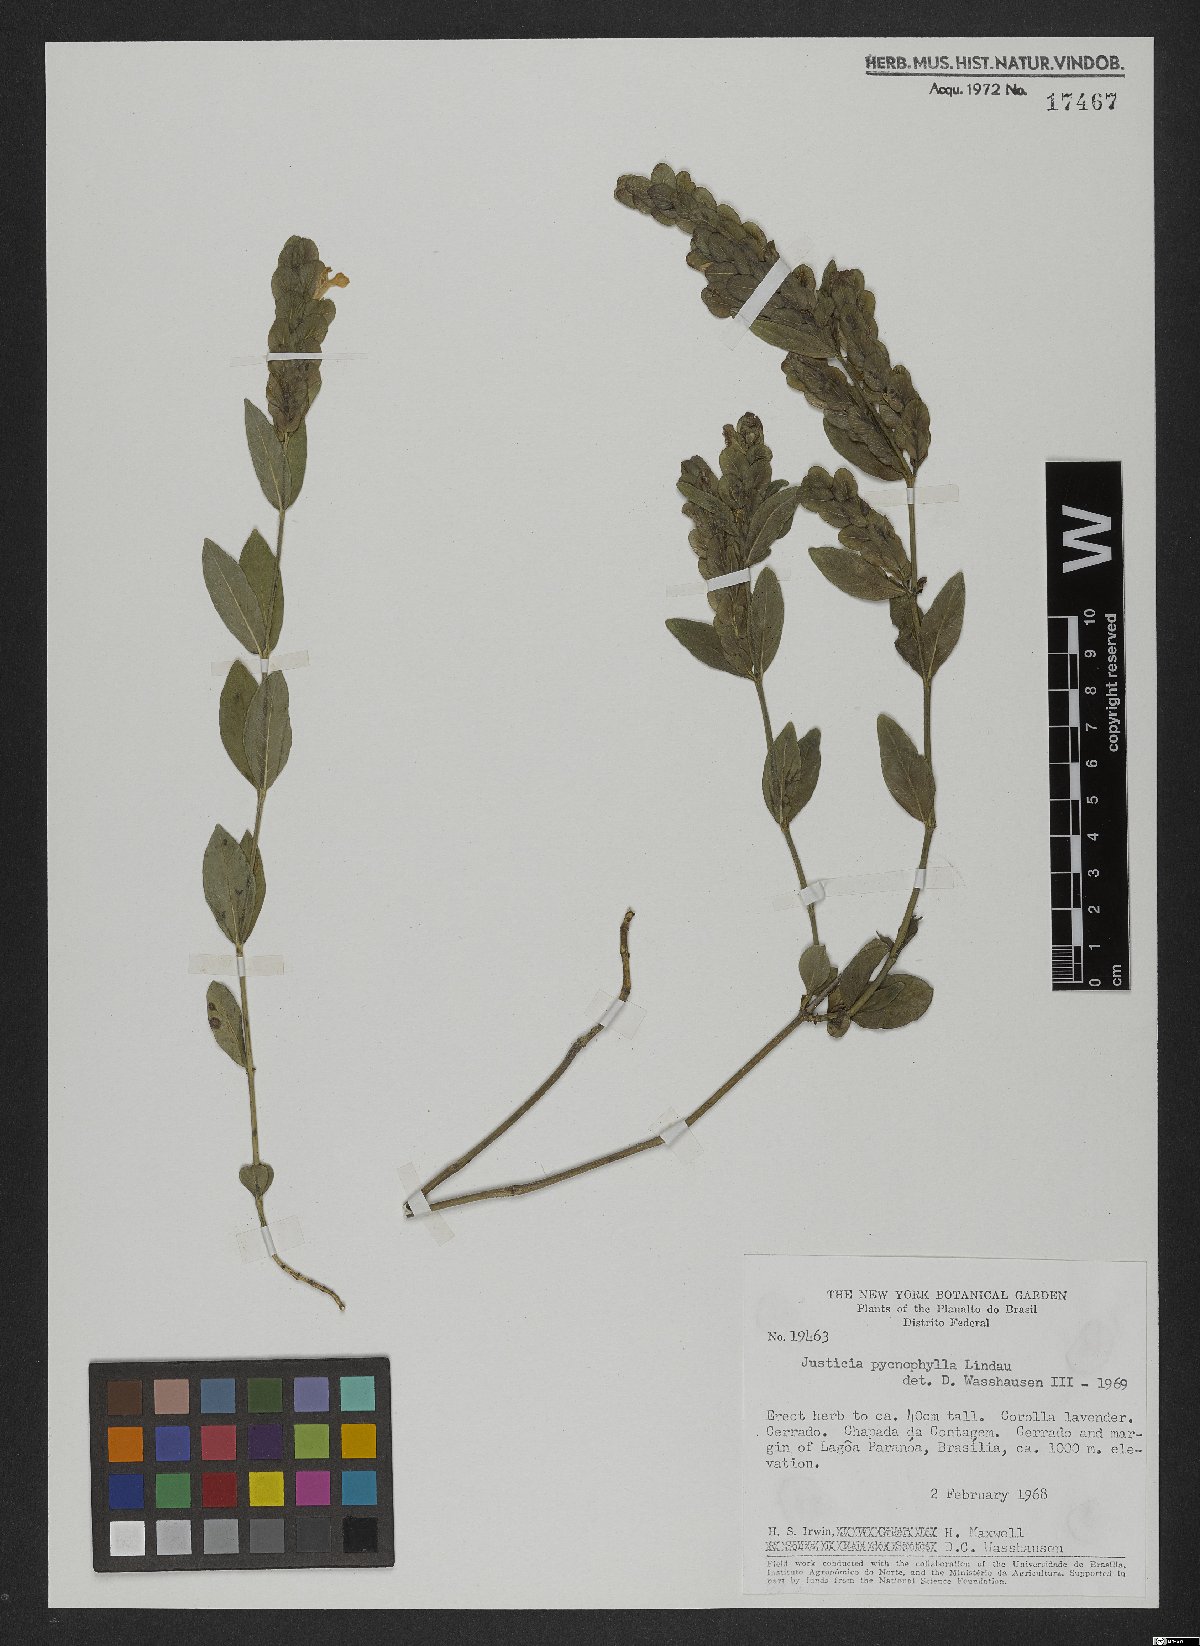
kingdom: Plantae
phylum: Tracheophyta
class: Magnoliopsida
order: Lamiales
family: Acanthaceae
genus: Justicia
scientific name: Justicia pycnophylla
